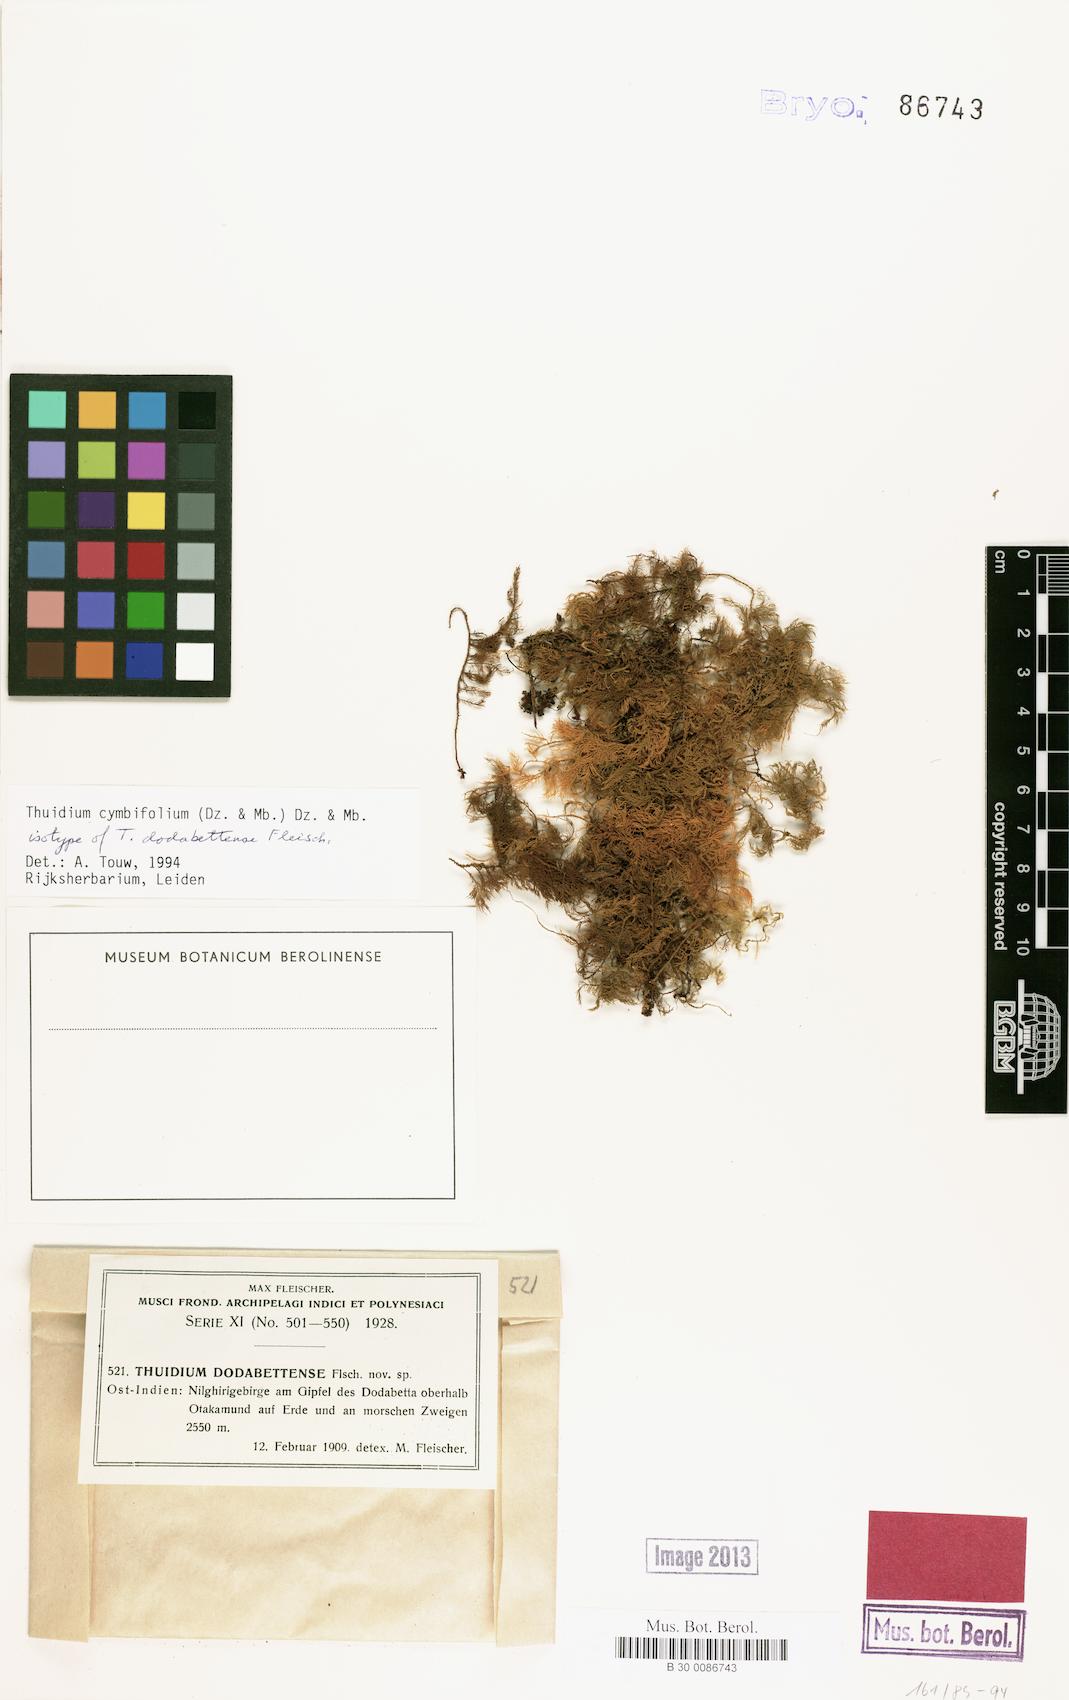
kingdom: Plantae
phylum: Bryophyta
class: Bryopsida
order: Hypnales
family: Thuidiaceae
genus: Thuidium
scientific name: Thuidium cymbifolium
